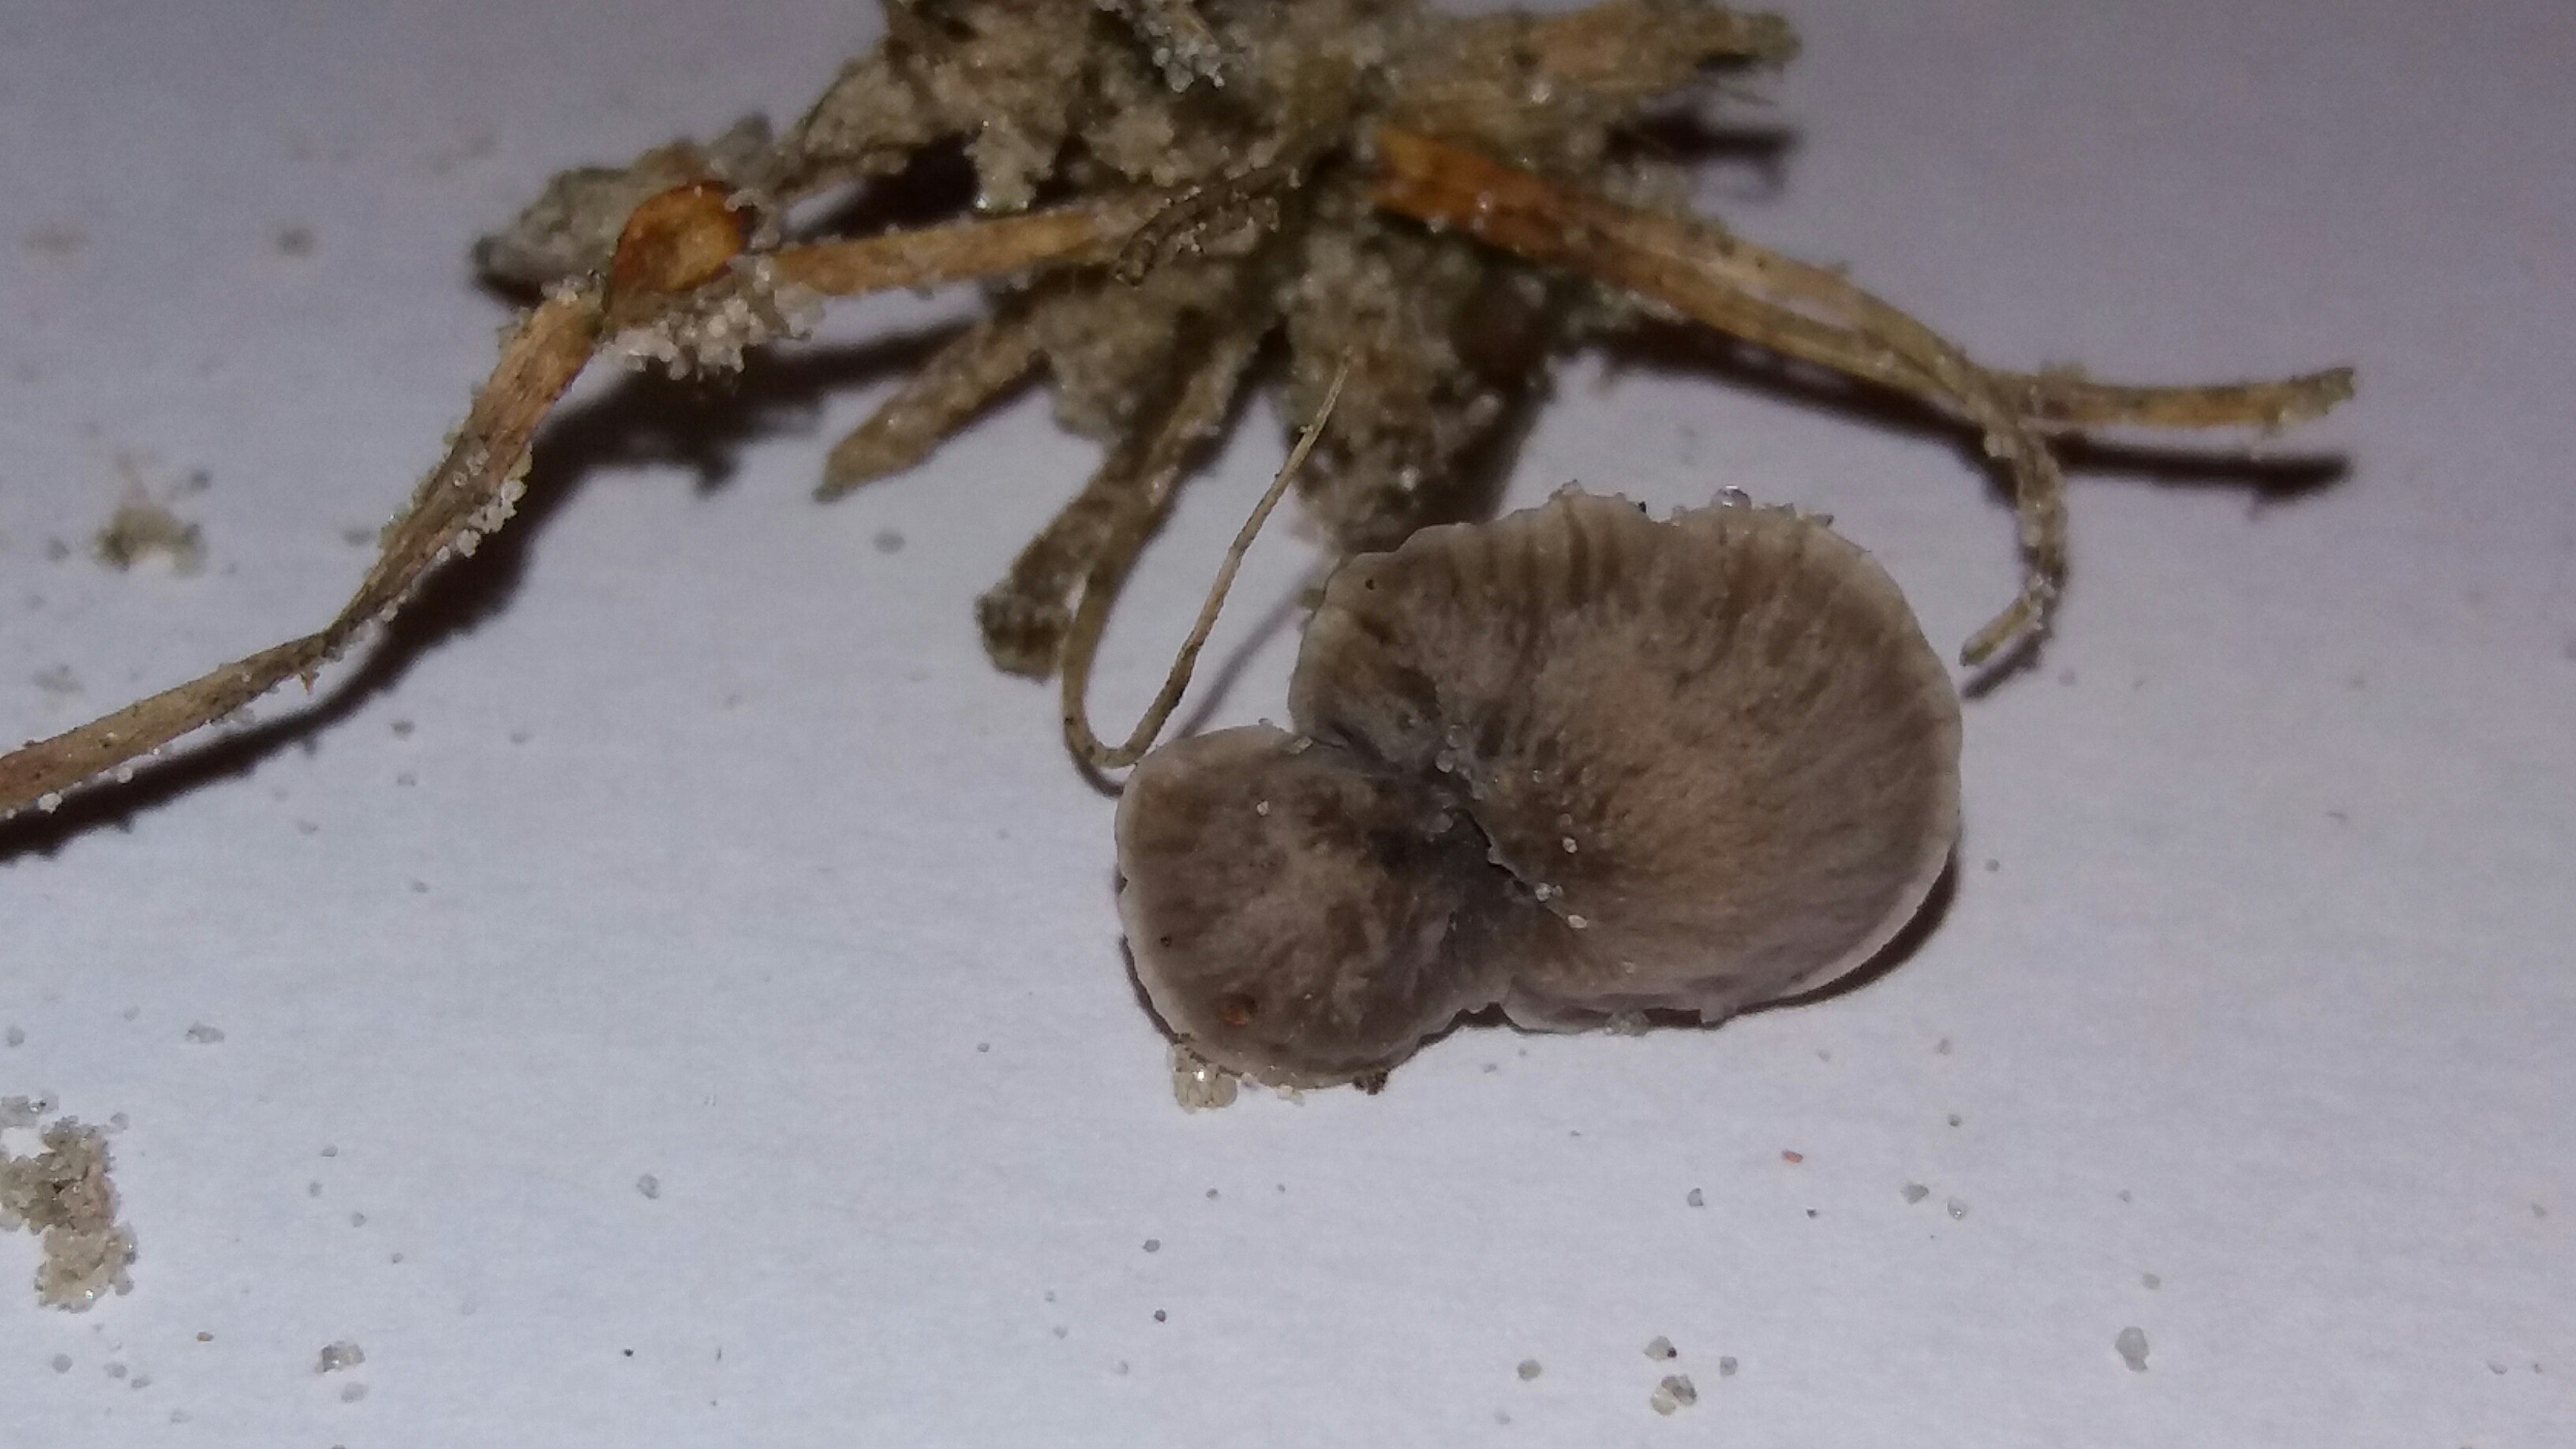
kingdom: Fungi
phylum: Basidiomycota
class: Agaricomycetes
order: Agaricales
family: Mycenaceae
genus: Mycena
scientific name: Mycena cinerella
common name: mel-huesvamp
